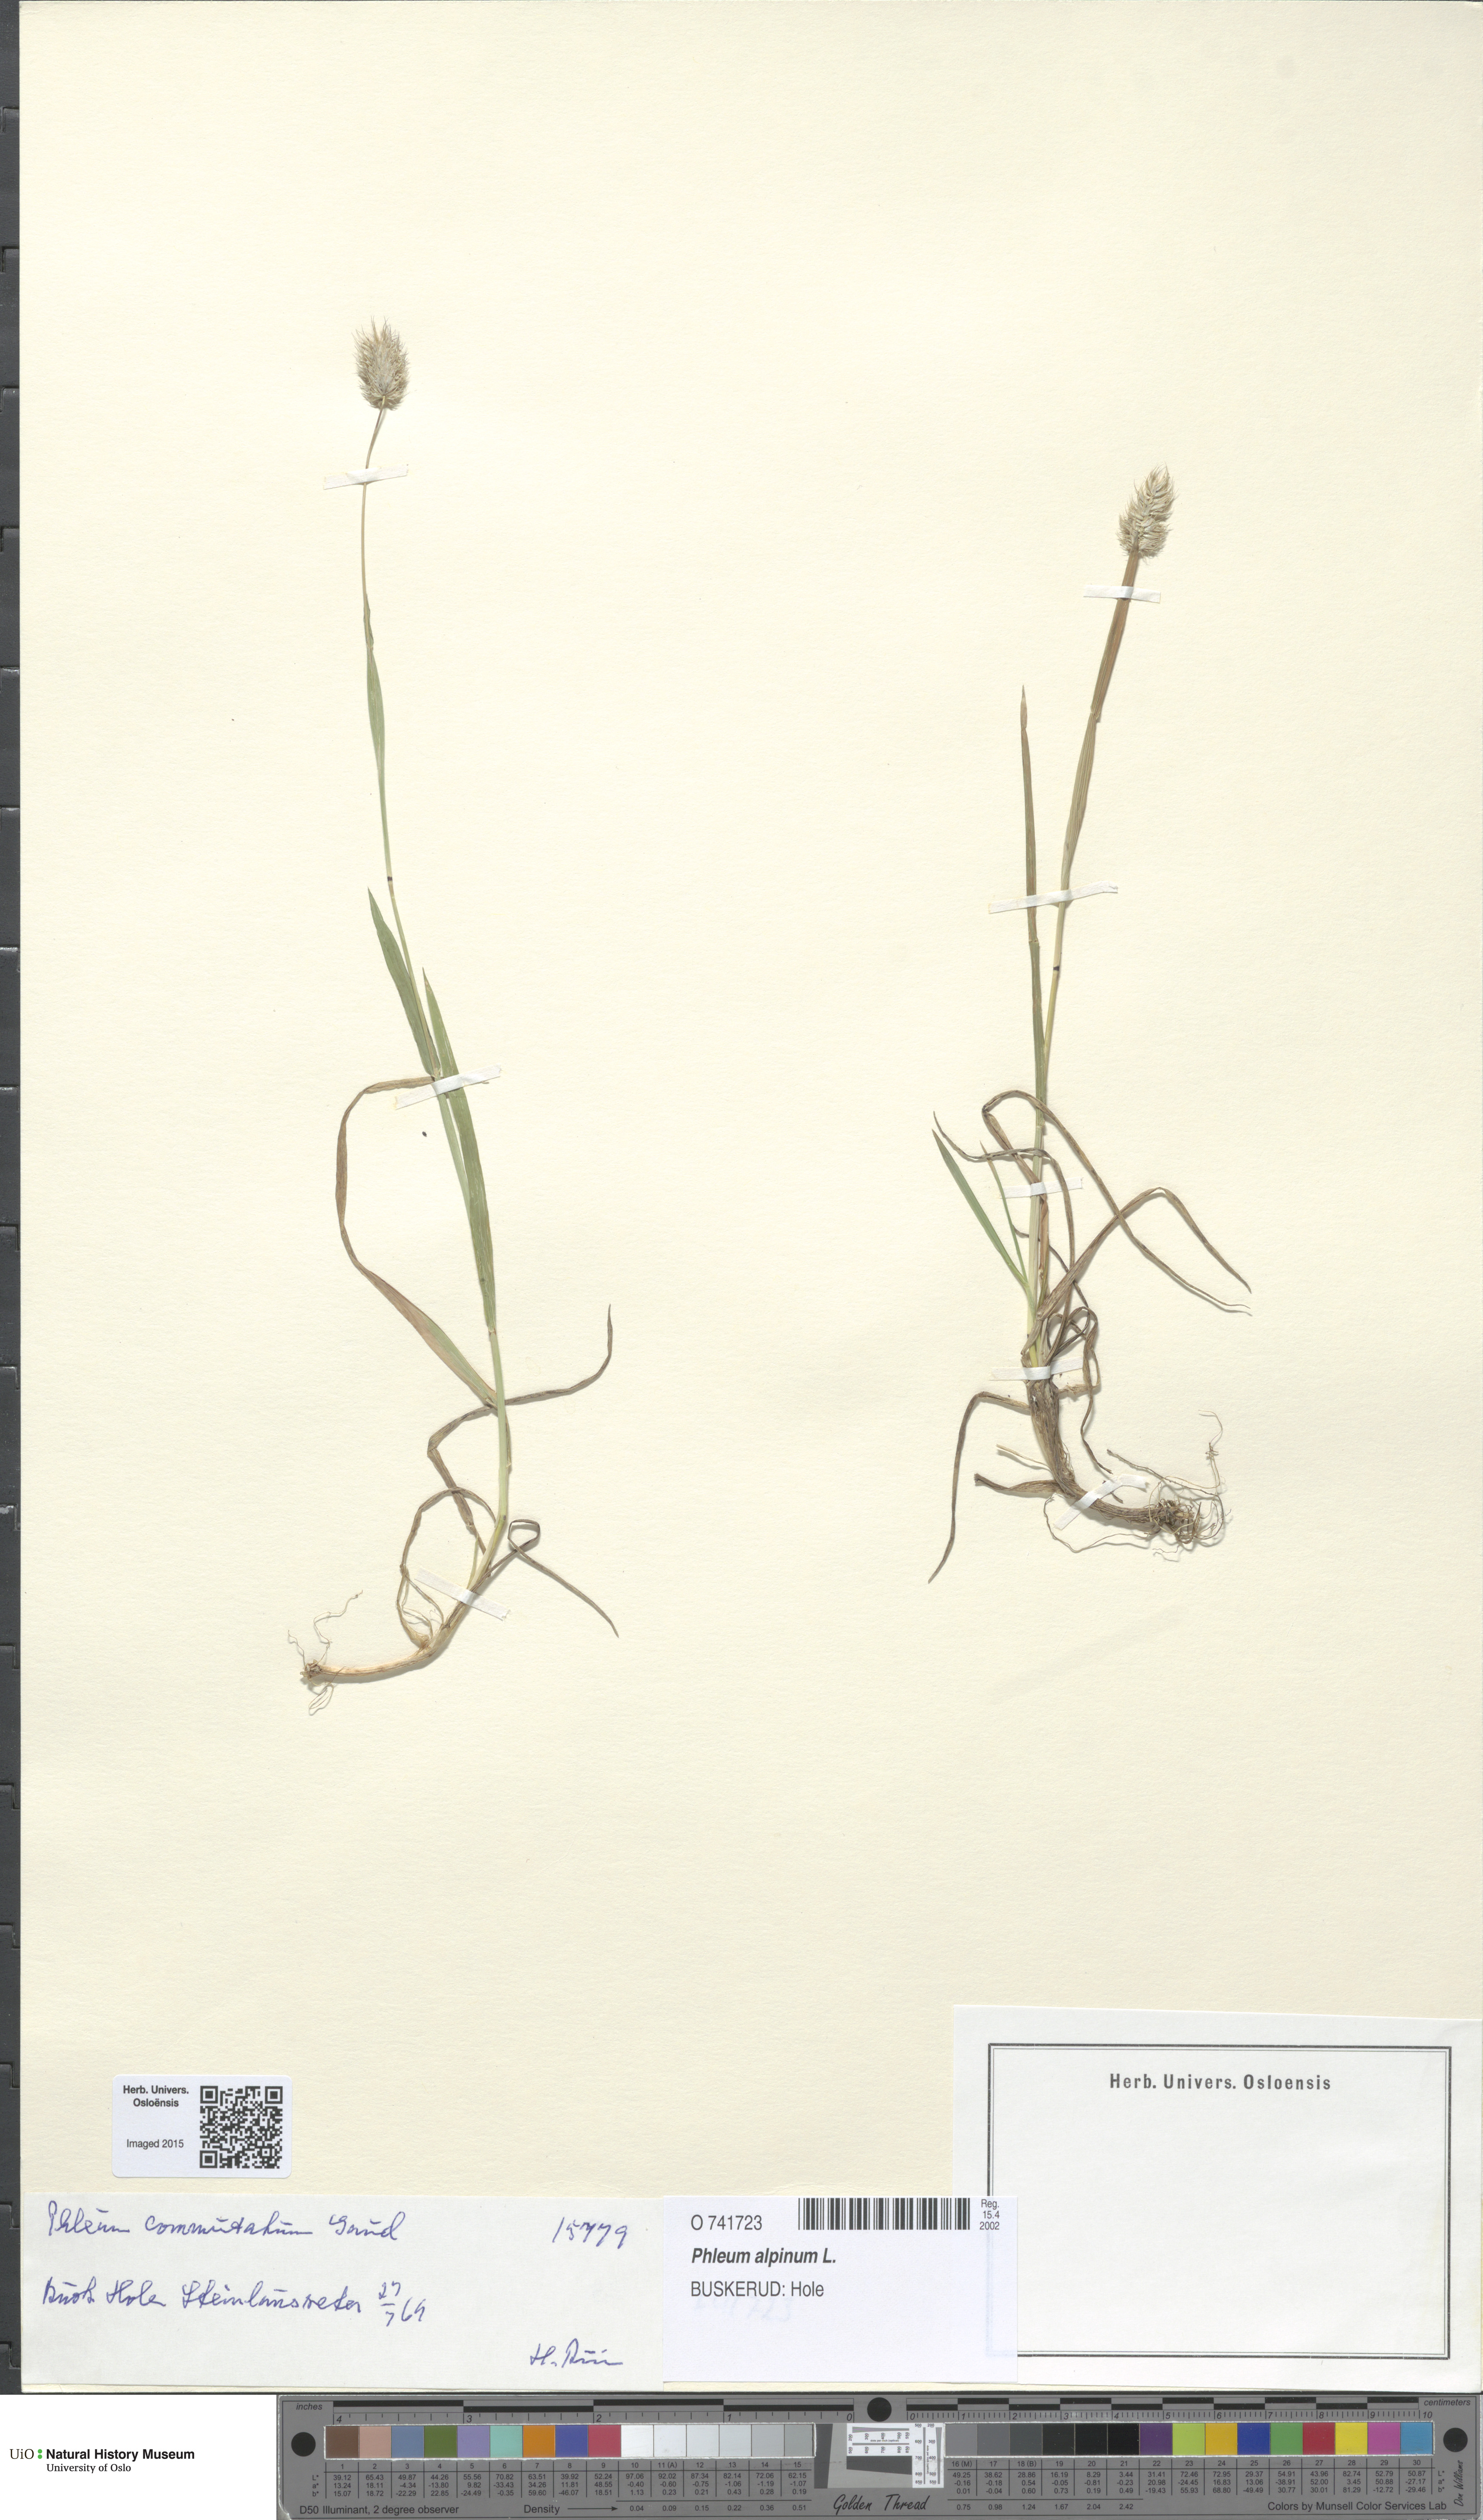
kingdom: Plantae
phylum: Tracheophyta
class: Liliopsida
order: Poales
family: Poaceae
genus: Phleum
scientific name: Phleum alpinum
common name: Alpine cat's-tail
